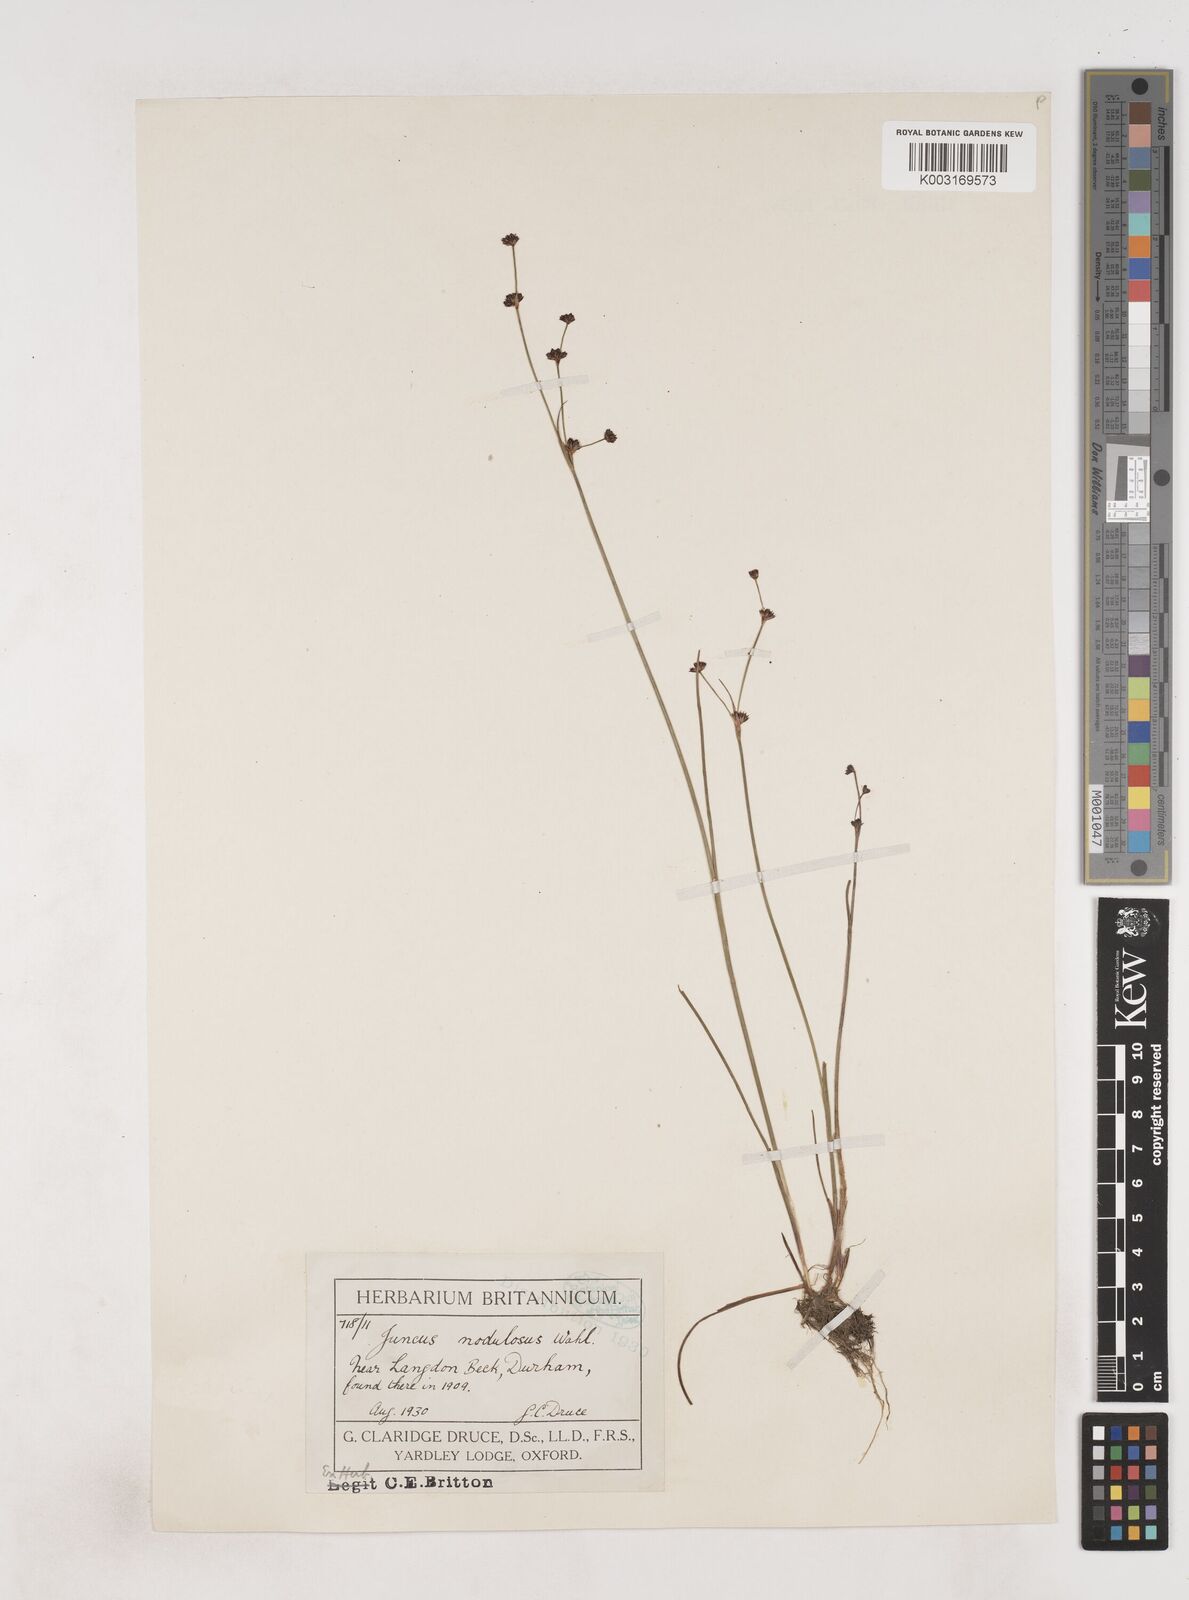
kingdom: Plantae
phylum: Tracheophyta
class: Liliopsida
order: Poales
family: Juncaceae
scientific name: Juncaceae
